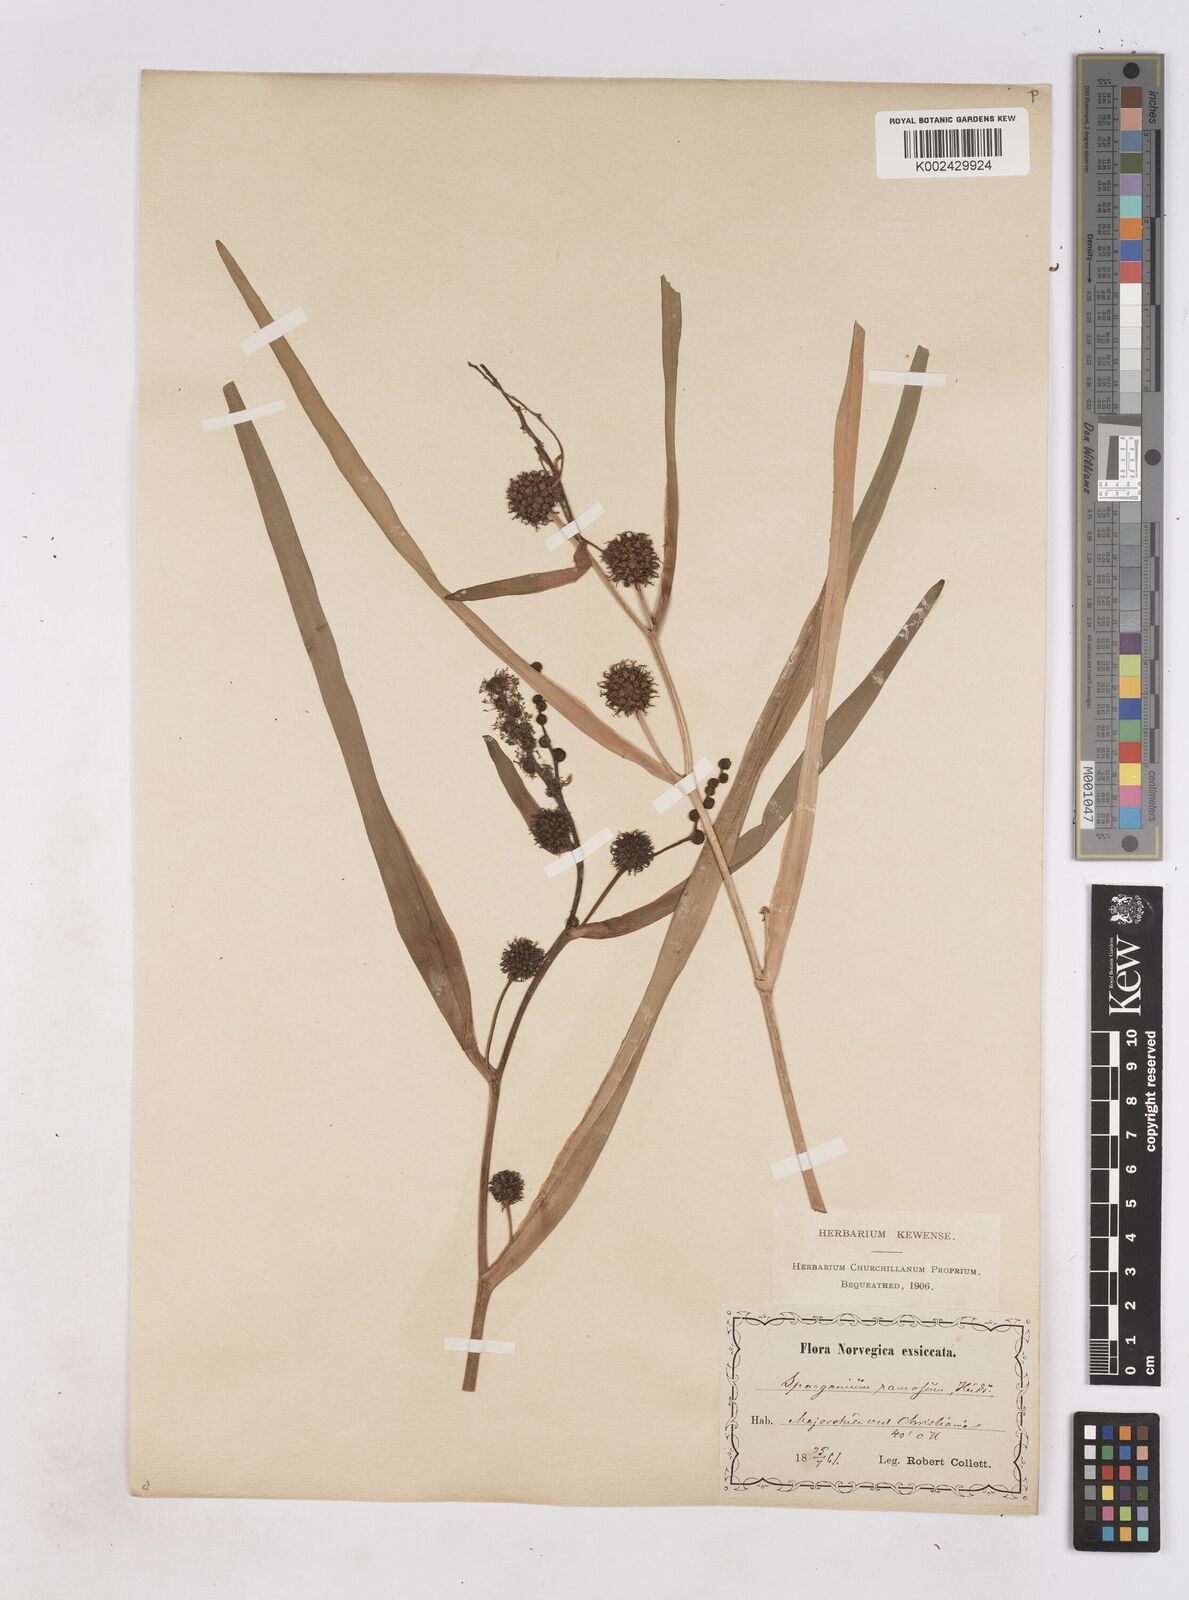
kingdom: Plantae
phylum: Tracheophyta
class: Liliopsida
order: Poales
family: Typhaceae
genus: Sparganium
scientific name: Sparganium erectum
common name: Branched bur-reed
